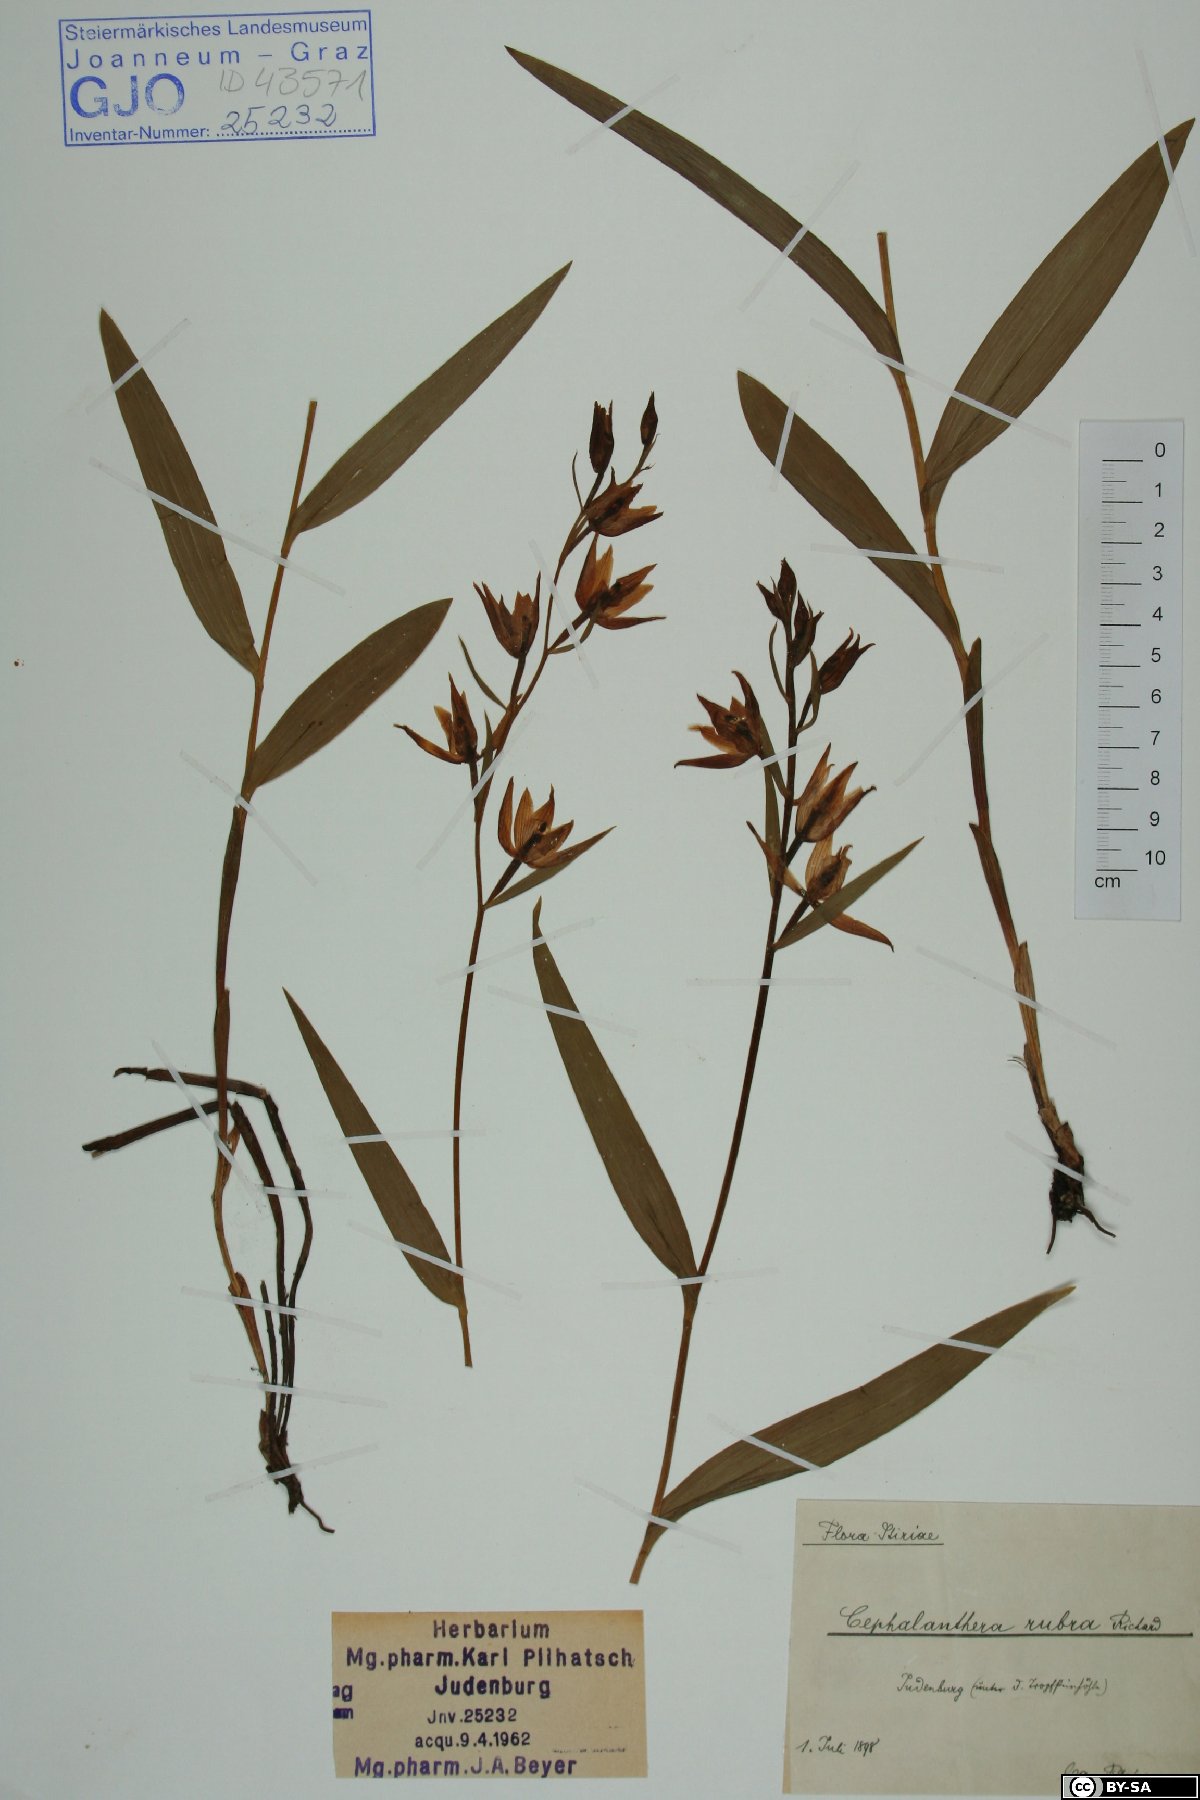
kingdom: Plantae
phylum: Tracheophyta
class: Liliopsida
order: Asparagales
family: Orchidaceae
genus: Cephalanthera
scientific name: Cephalanthera rubra
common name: Red helleborine
